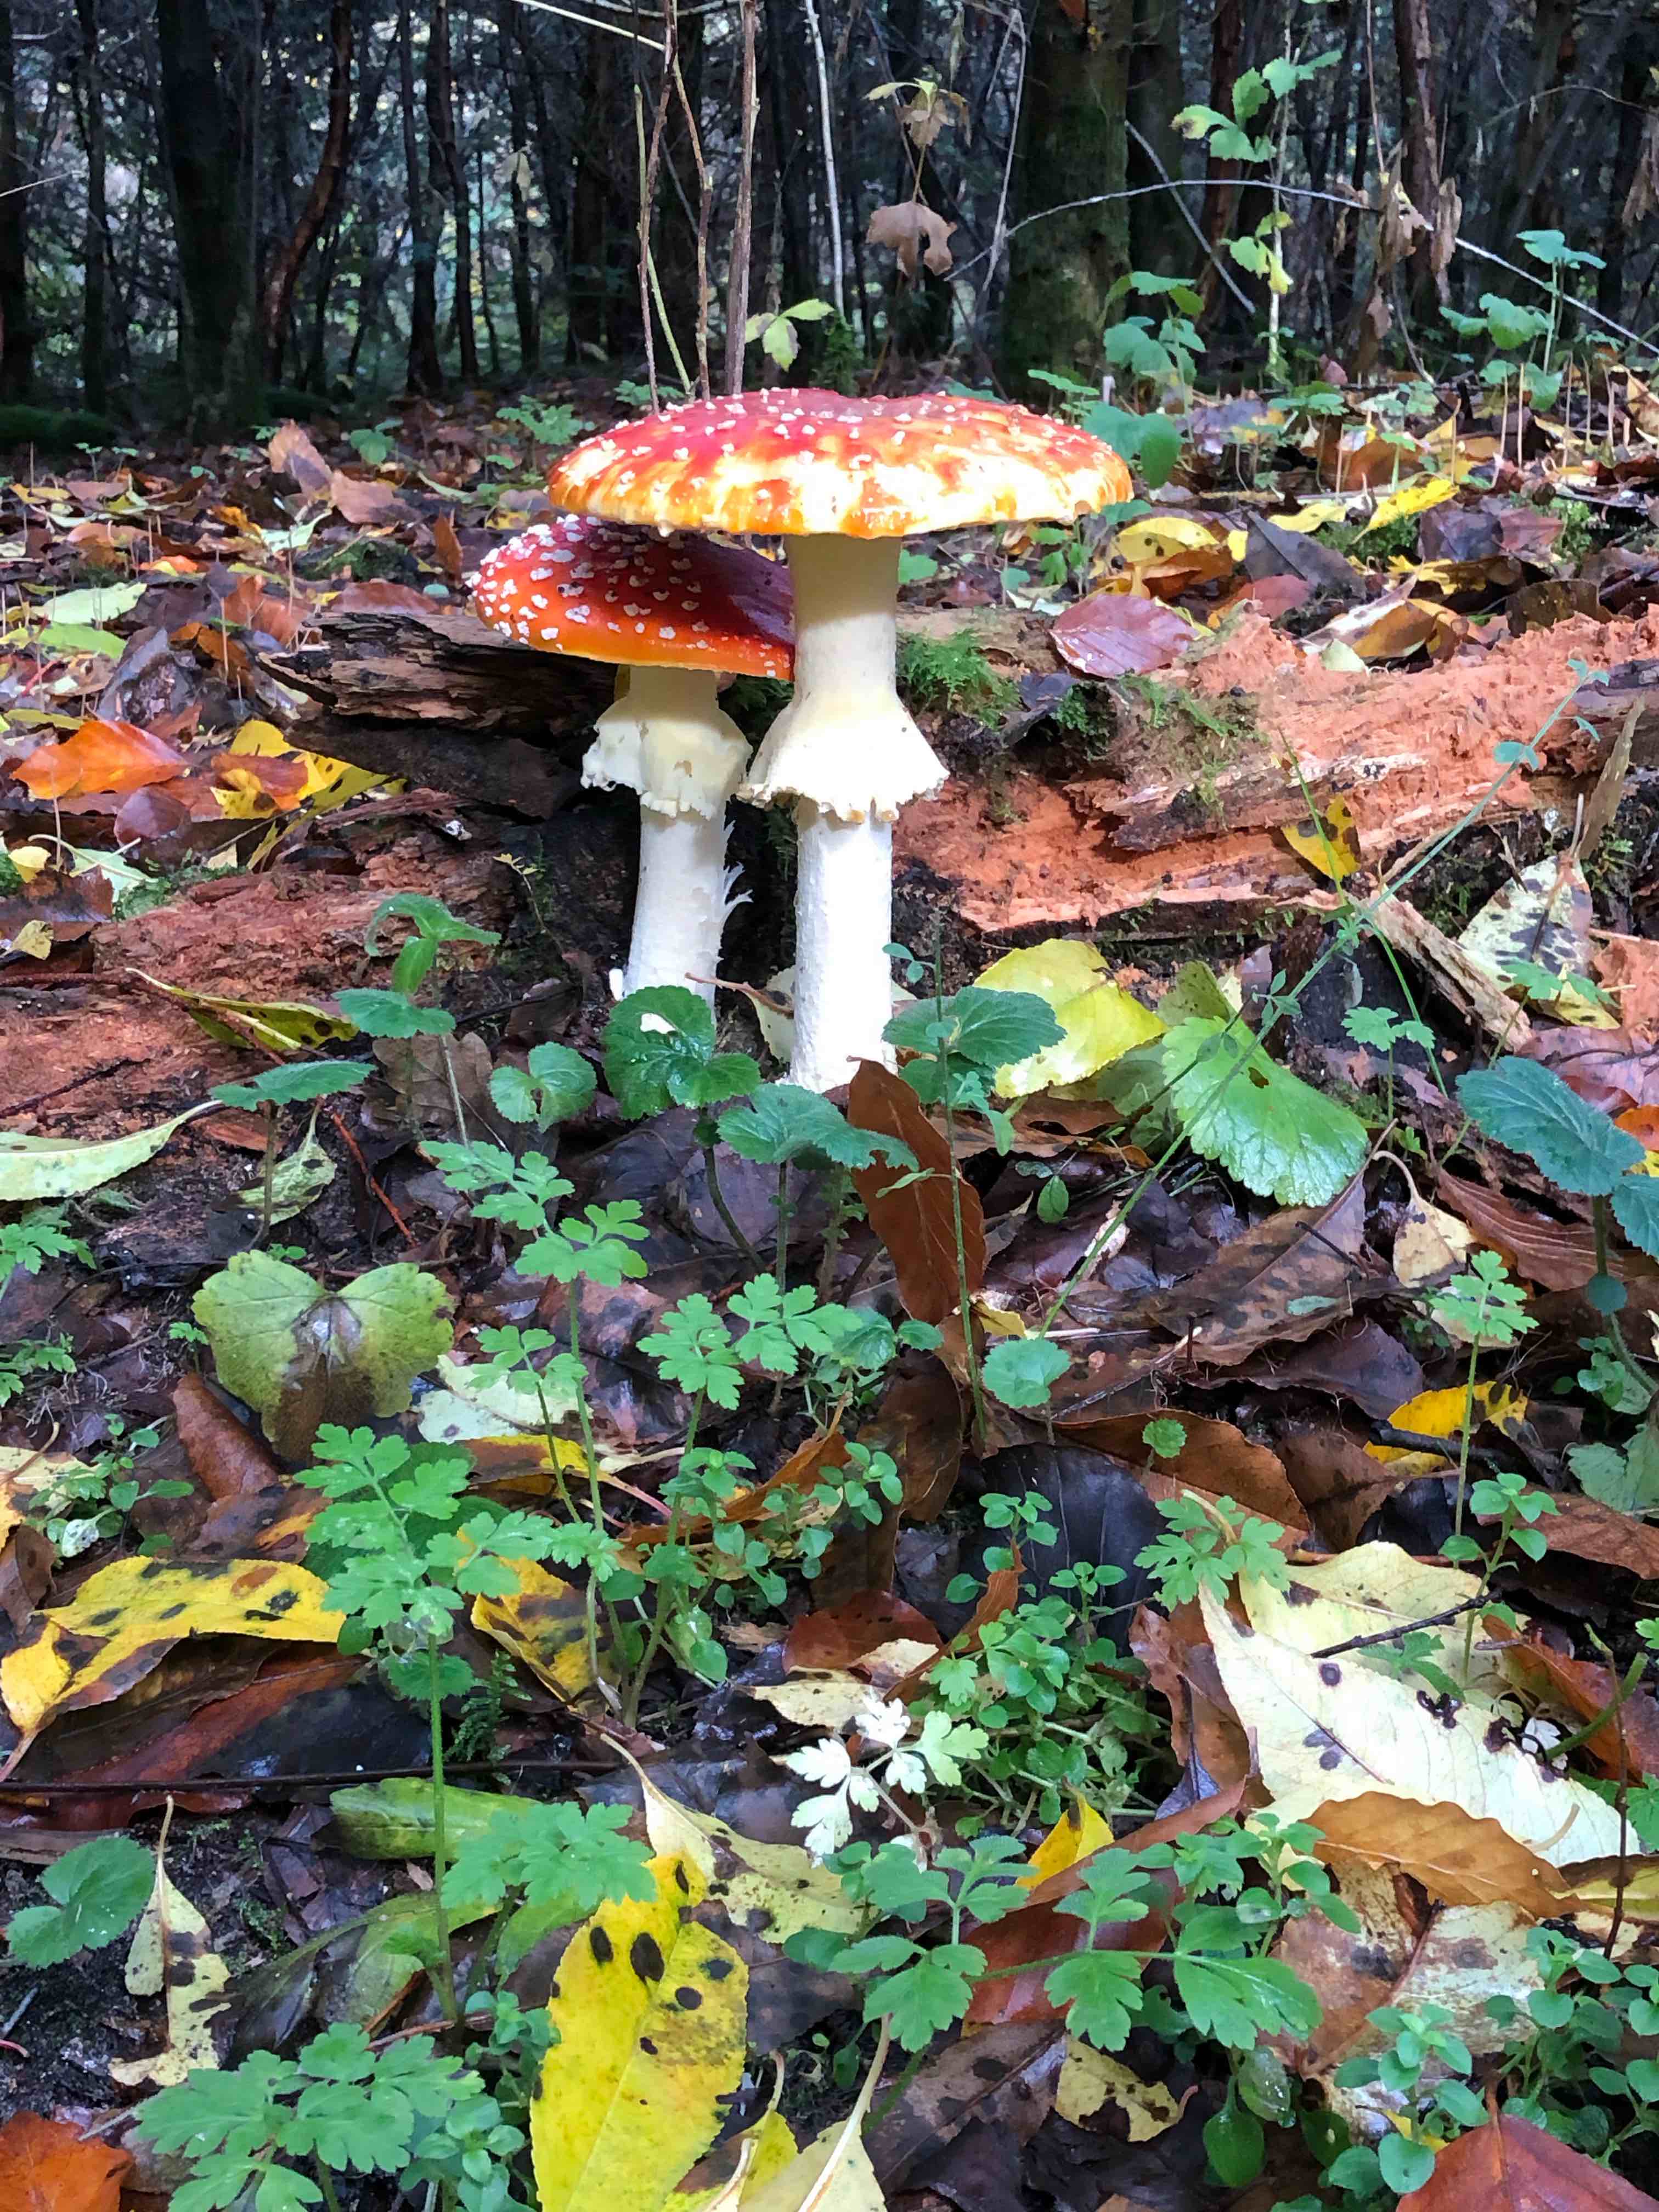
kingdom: Fungi
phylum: Basidiomycota
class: Agaricomycetes
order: Agaricales
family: Amanitaceae
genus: Amanita
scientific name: Amanita muscaria
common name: rød fluesvamp
